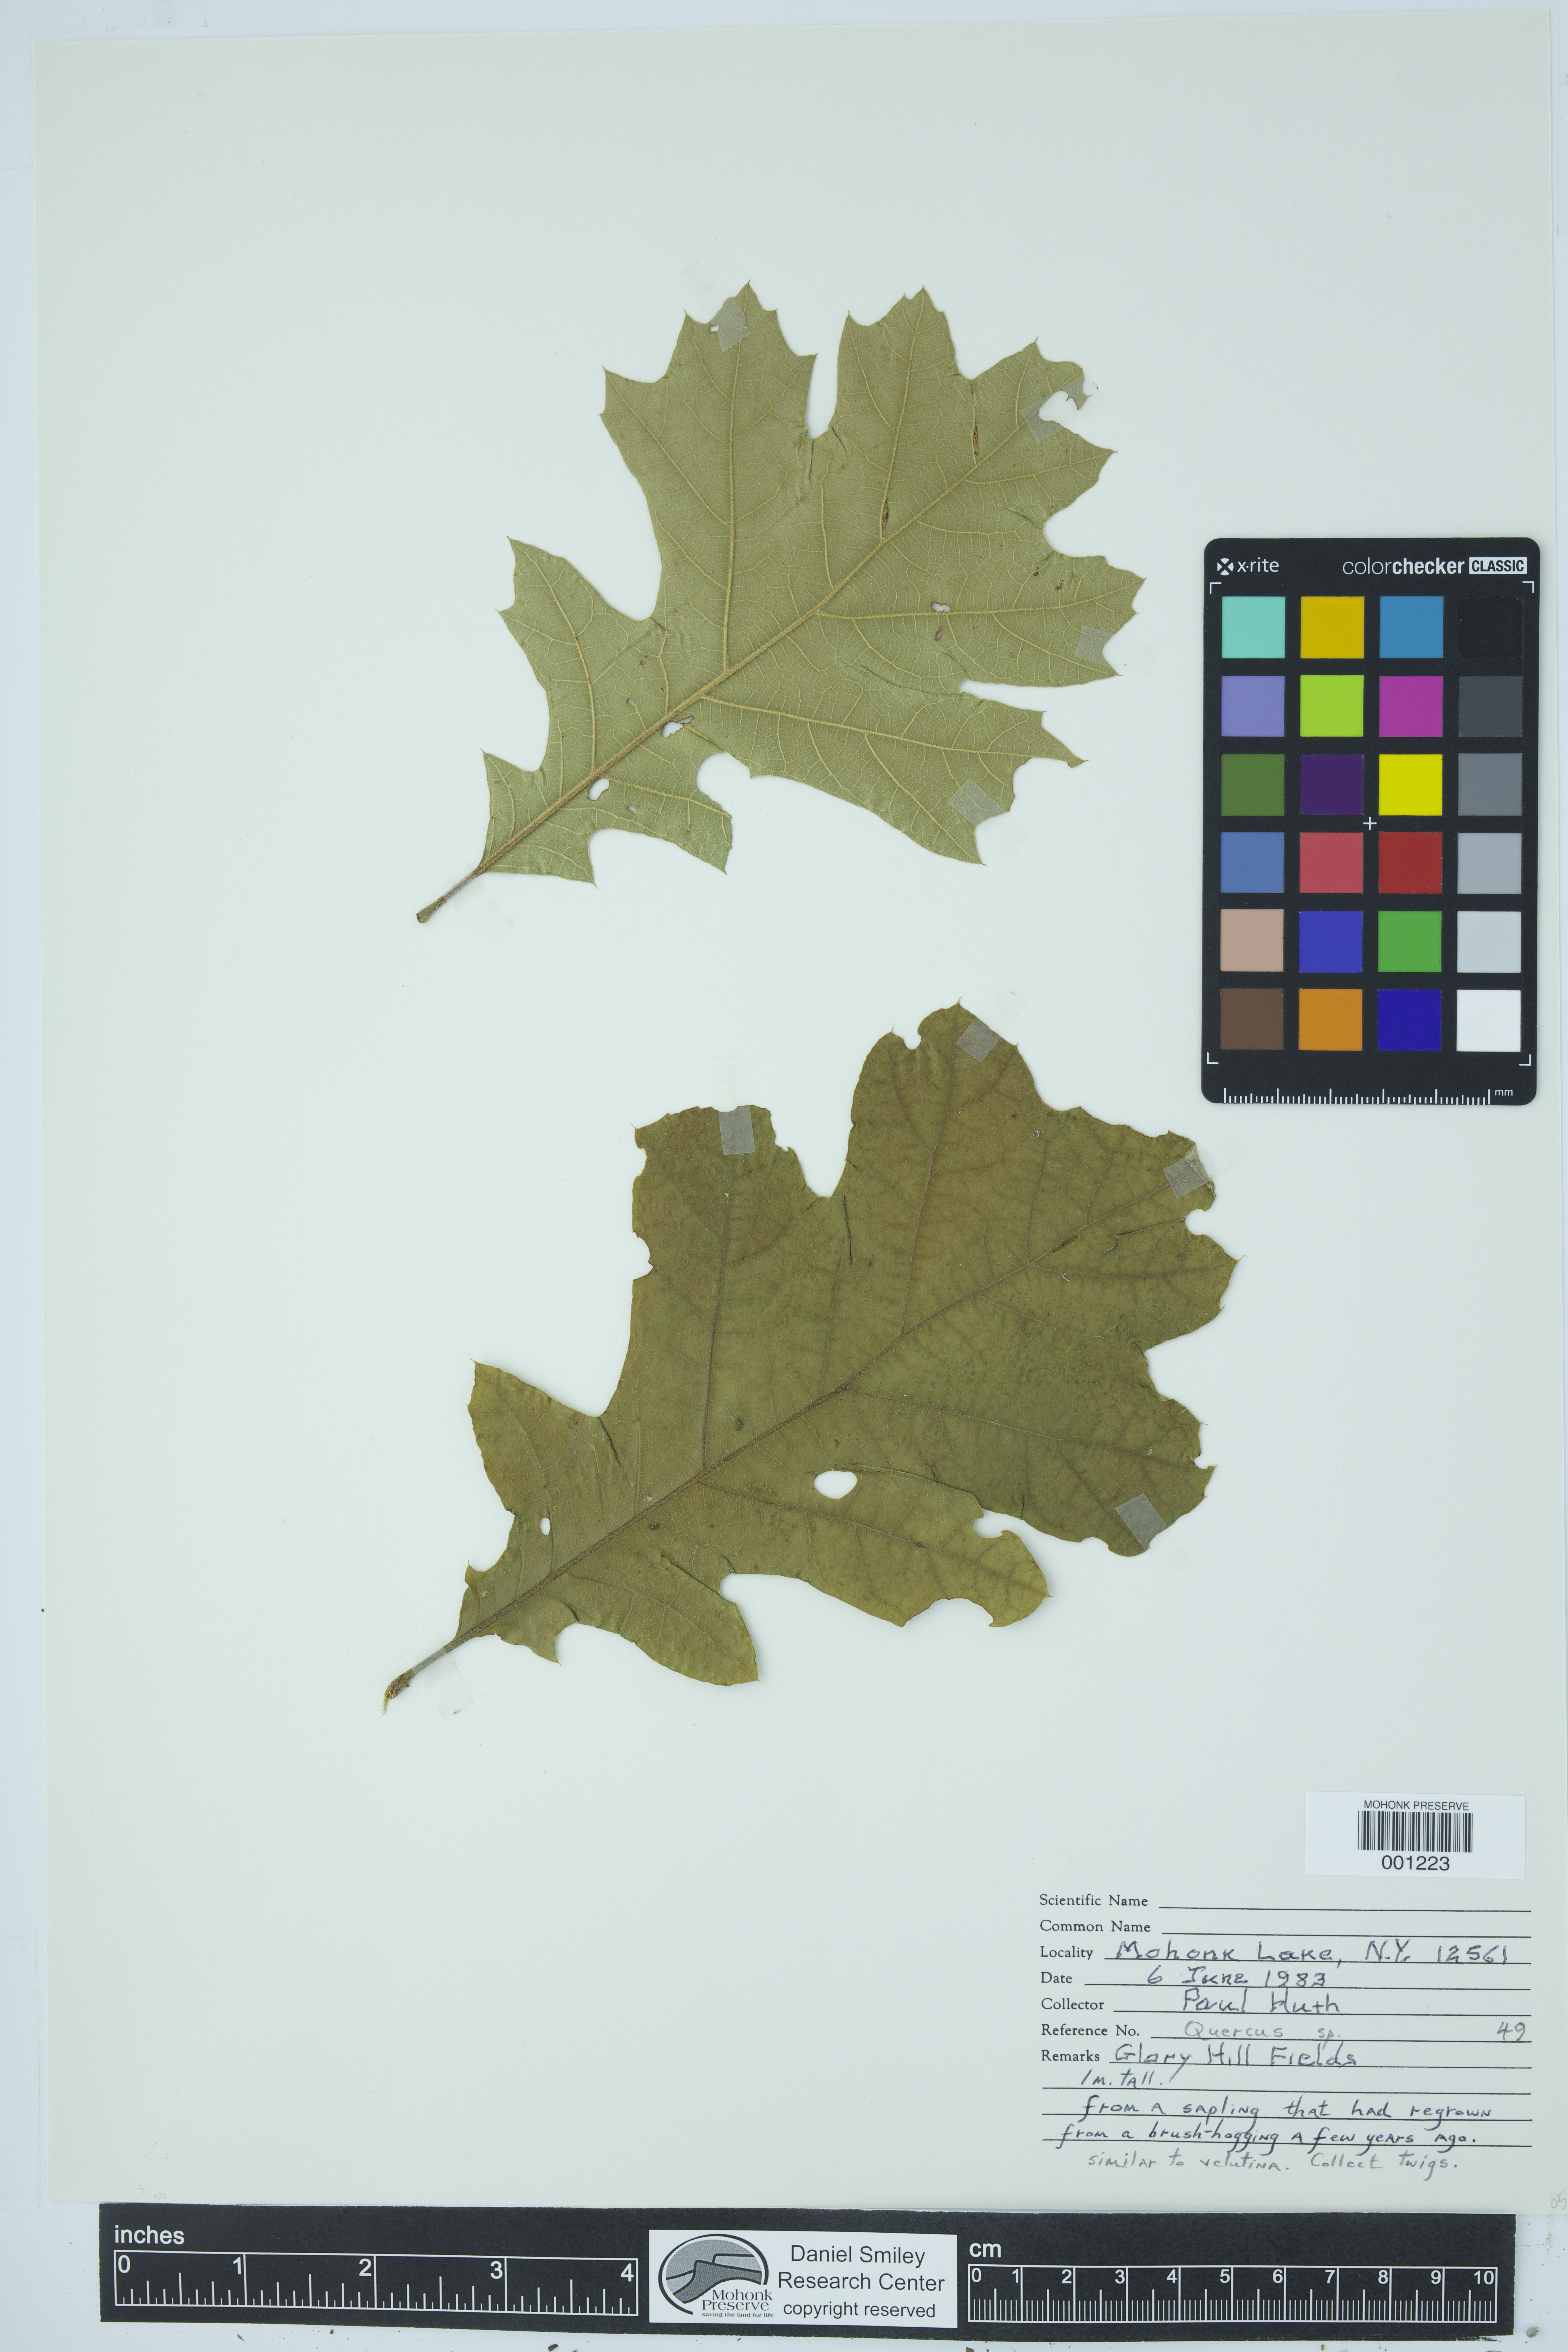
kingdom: Plantae
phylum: Tracheophyta
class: Magnoliopsida
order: Fagales
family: Fagaceae
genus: Quercus
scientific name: Quercus
